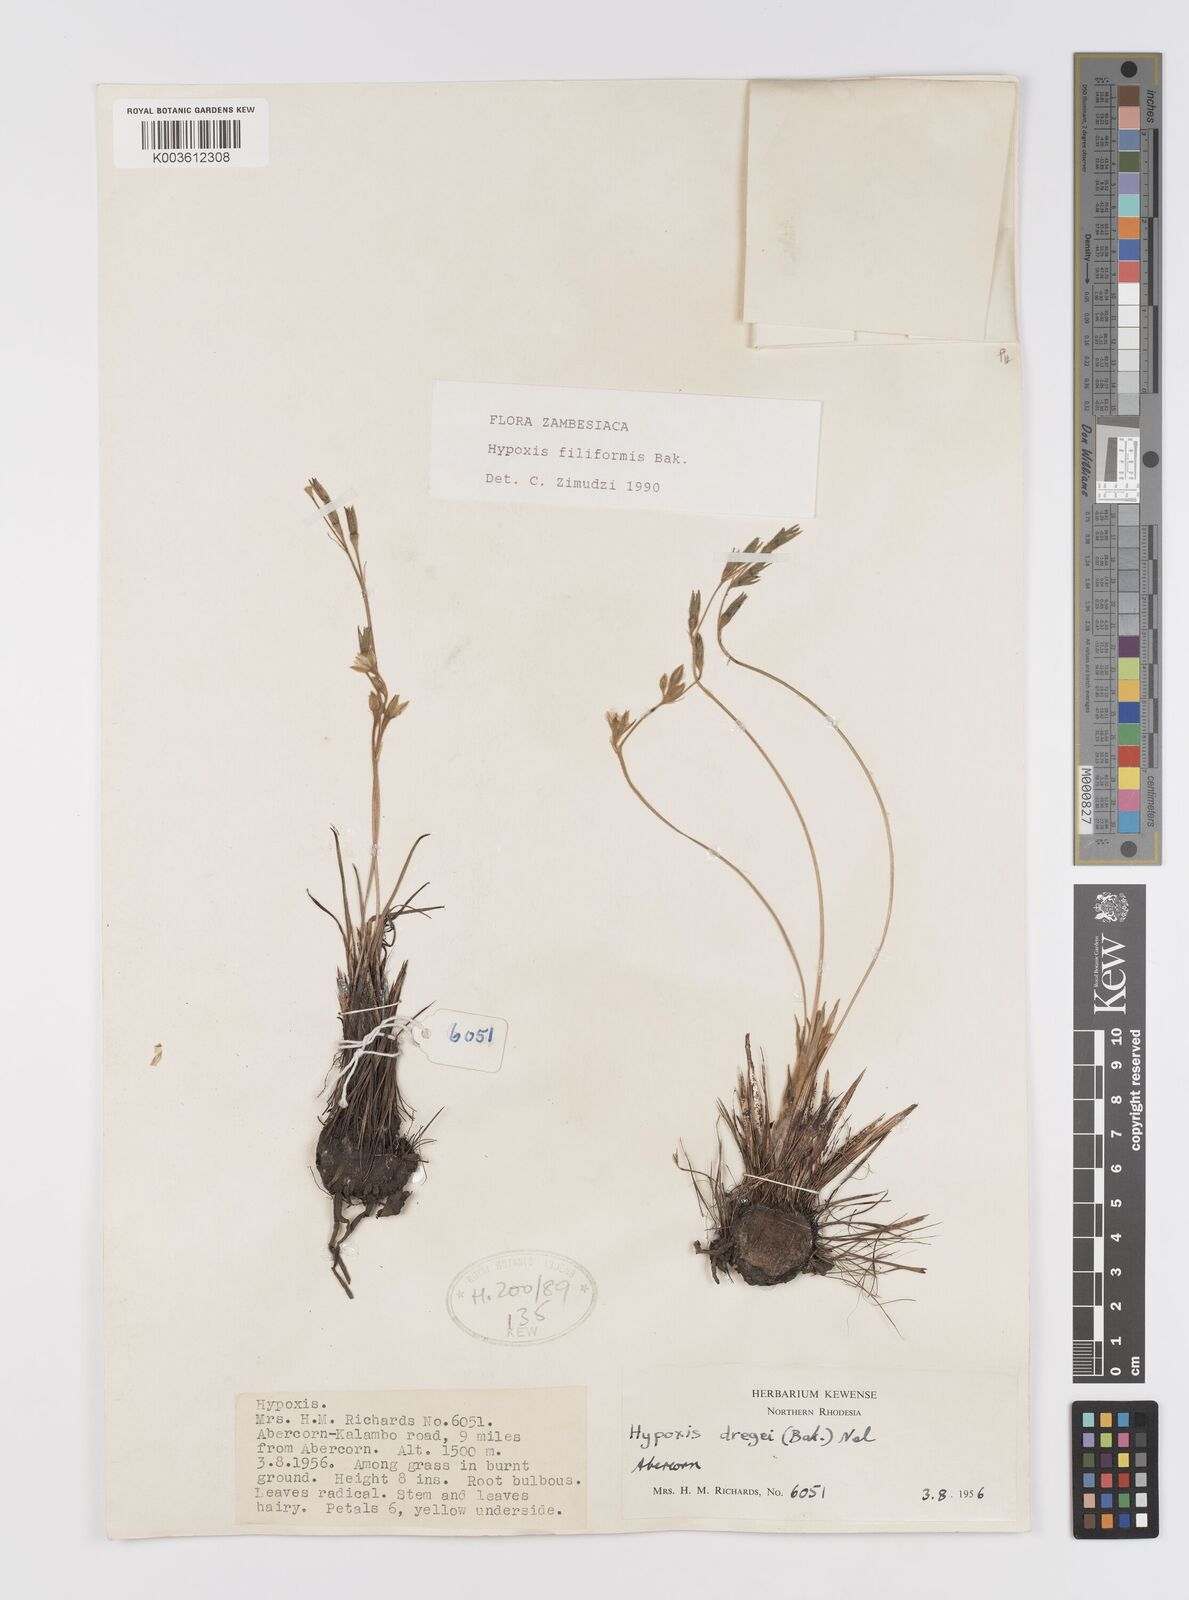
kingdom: Plantae
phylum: Tracheophyta
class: Liliopsida
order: Asparagales
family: Hypoxidaceae
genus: Hypoxis
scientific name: Hypoxis filiformis
